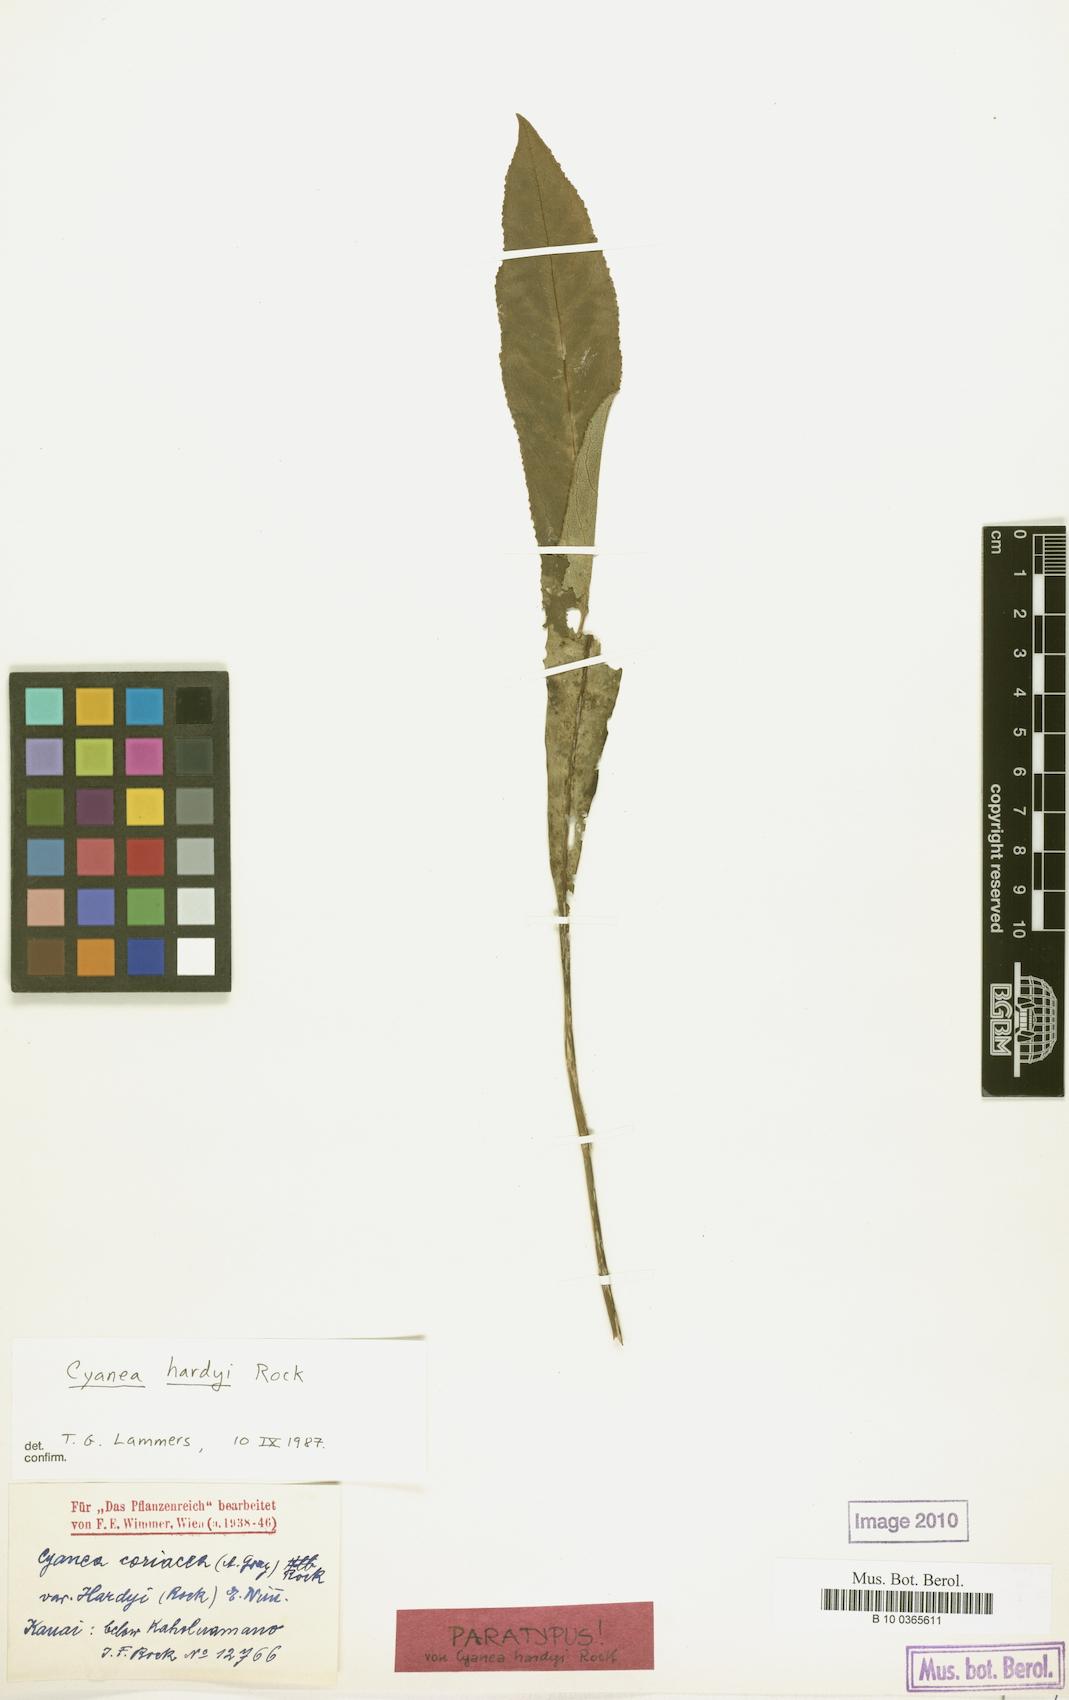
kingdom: Plantae
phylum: Tracheophyta
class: Magnoliopsida
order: Asterales
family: Campanulaceae
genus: Cyanea
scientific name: Cyanea hardyi
